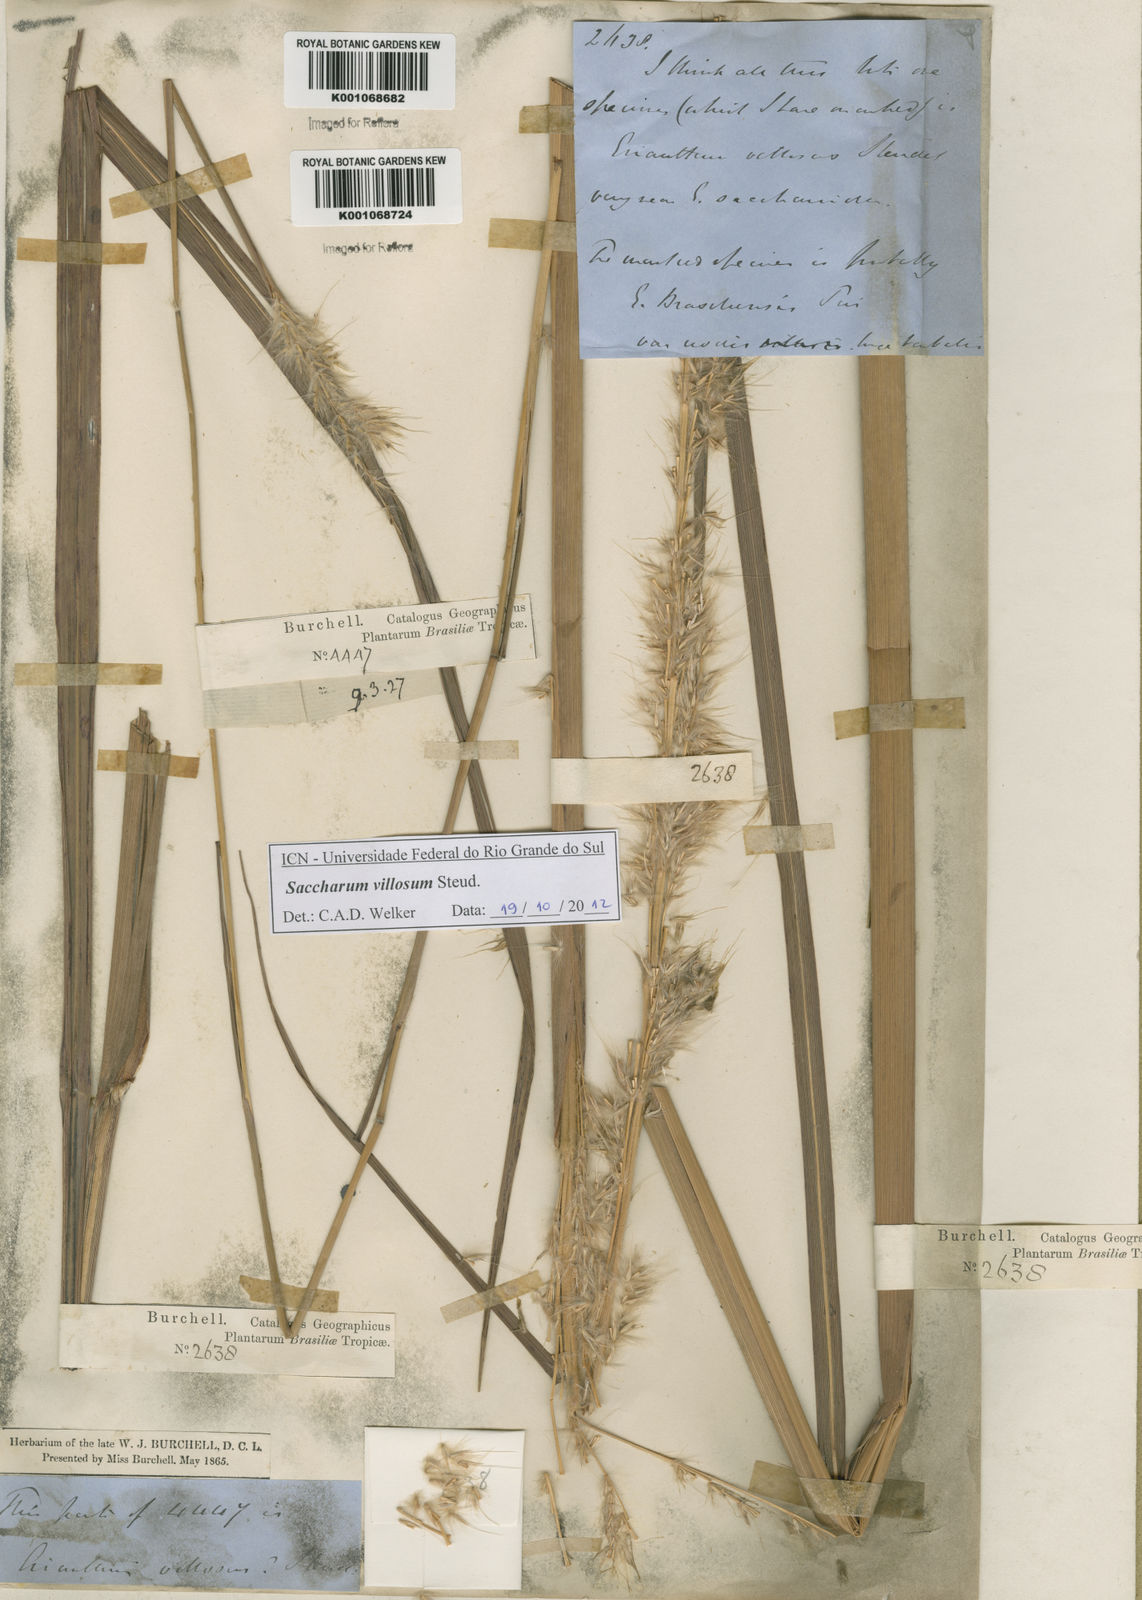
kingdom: Plantae
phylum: Tracheophyta
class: Liliopsida
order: Poales
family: Poaceae
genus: Erianthus
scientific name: Erianthus trinii
